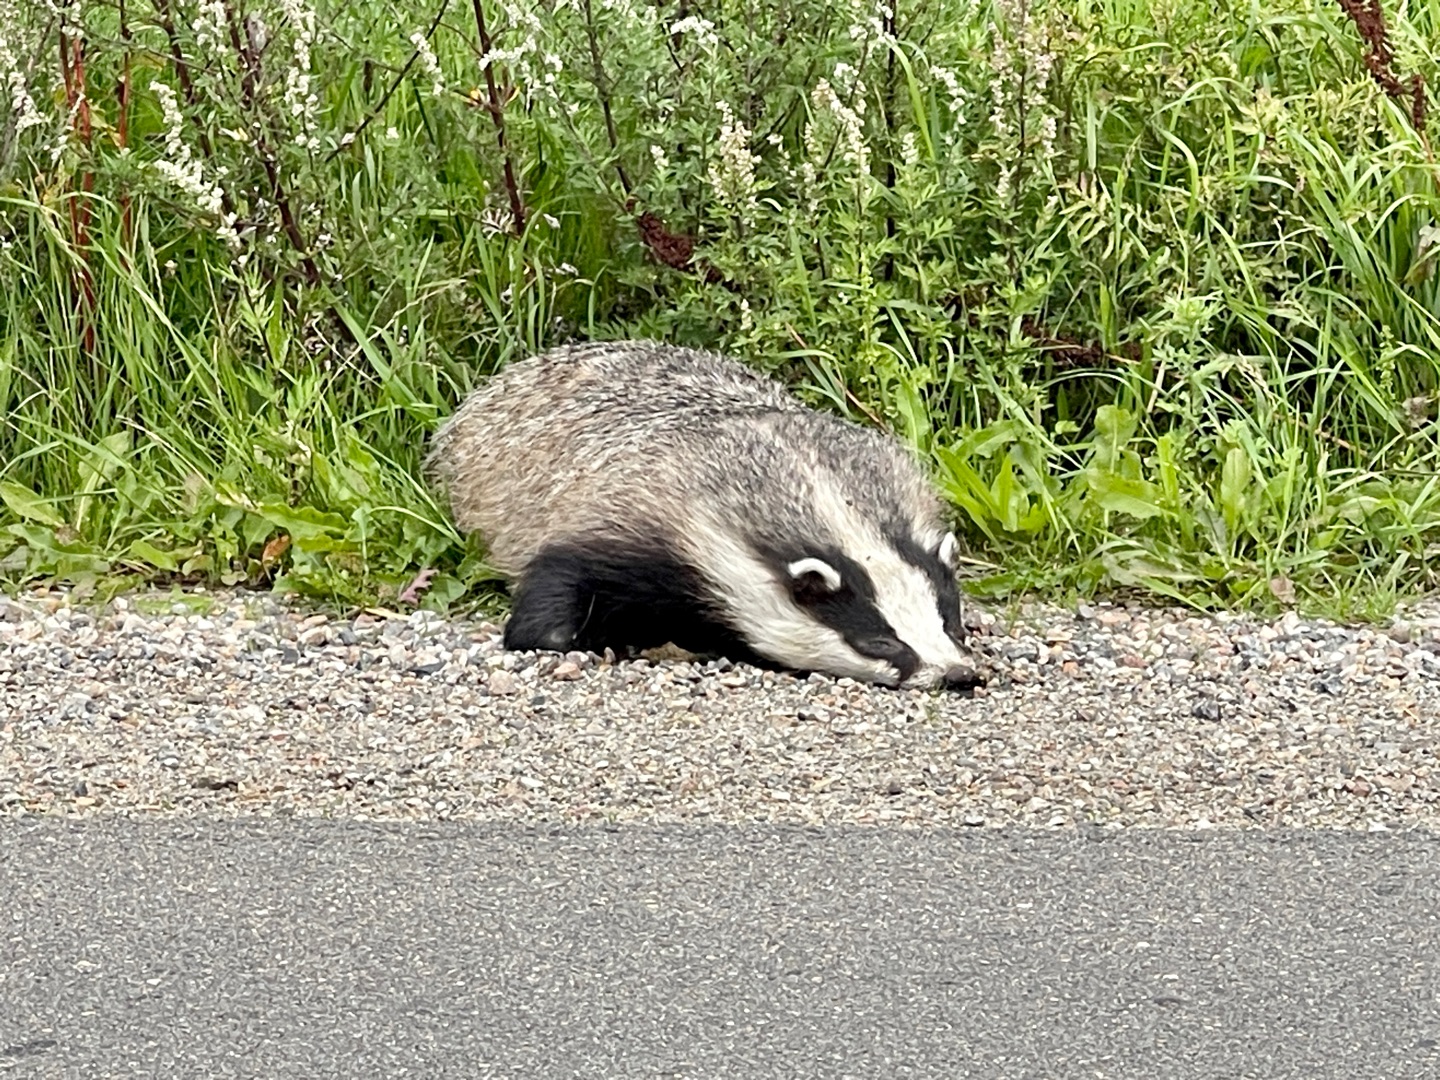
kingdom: Animalia
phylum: Chordata
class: Mammalia
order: Carnivora
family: Mustelidae
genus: Meles
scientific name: Meles meles
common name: Grævling
